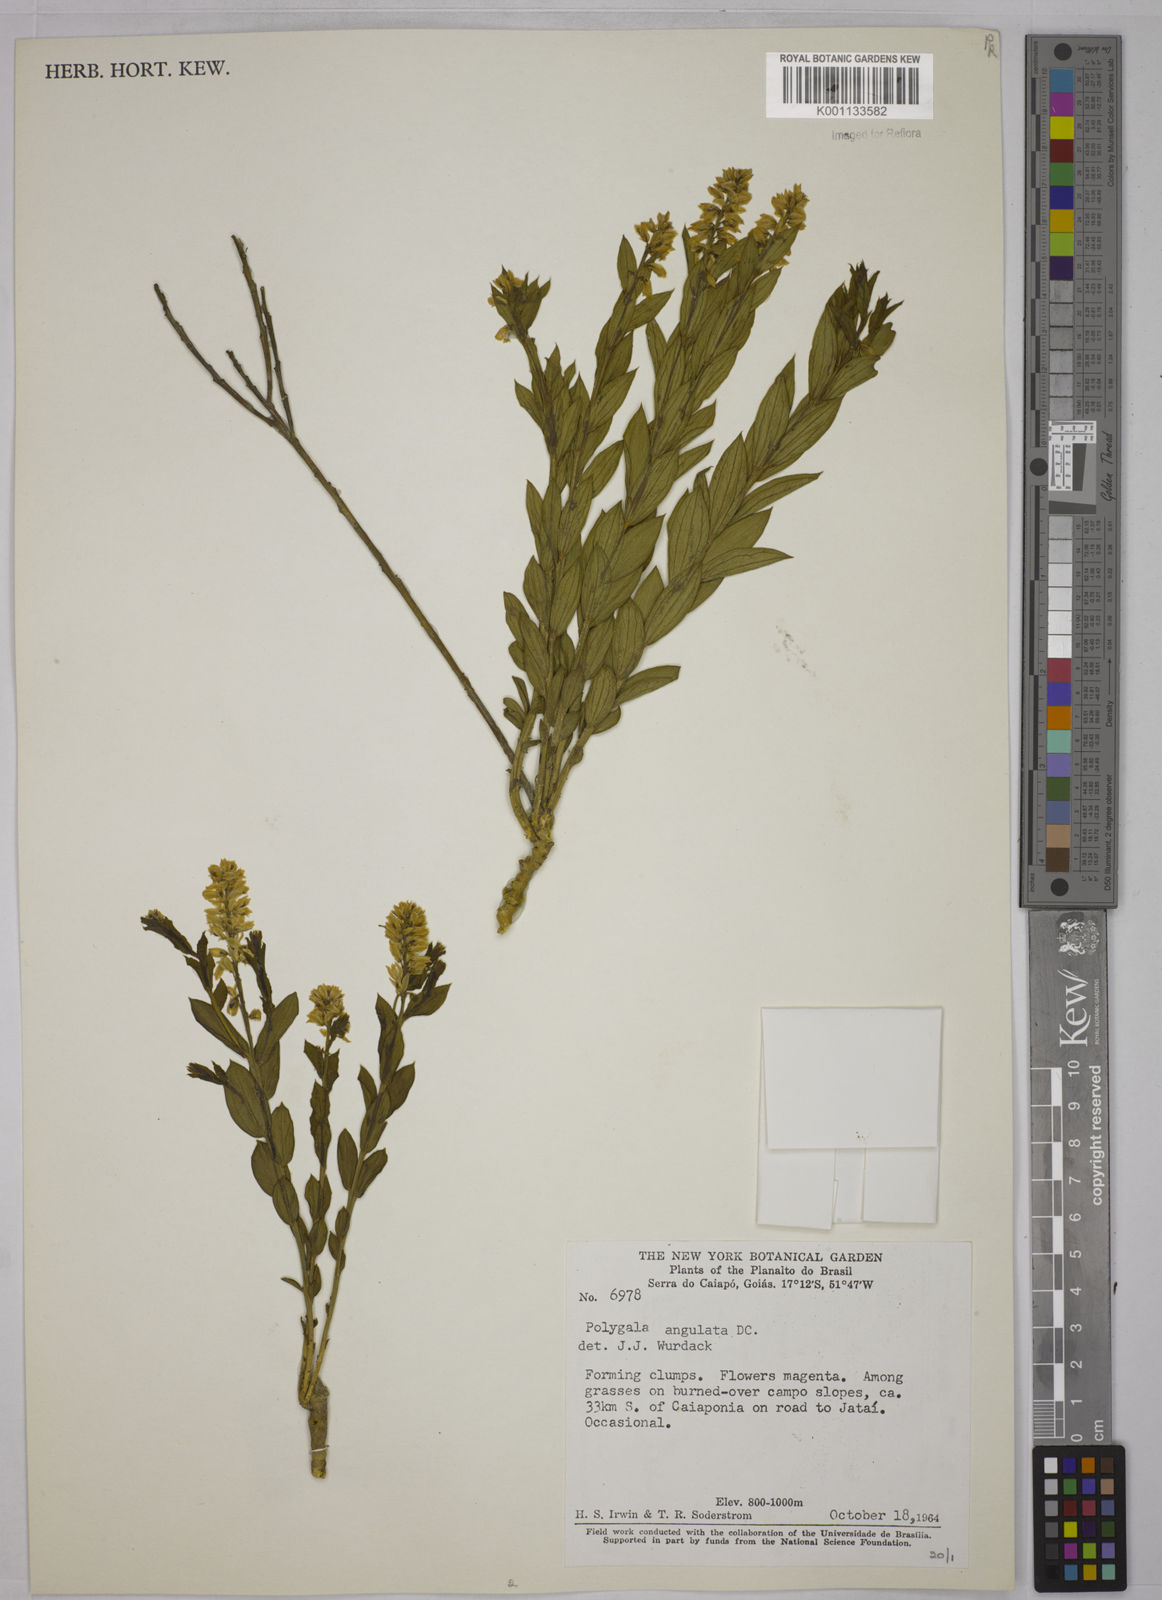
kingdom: Plantae
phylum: Tracheophyta
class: Magnoliopsida
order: Fabales
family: Polygalaceae
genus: Polygala
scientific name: Polygala poaya
